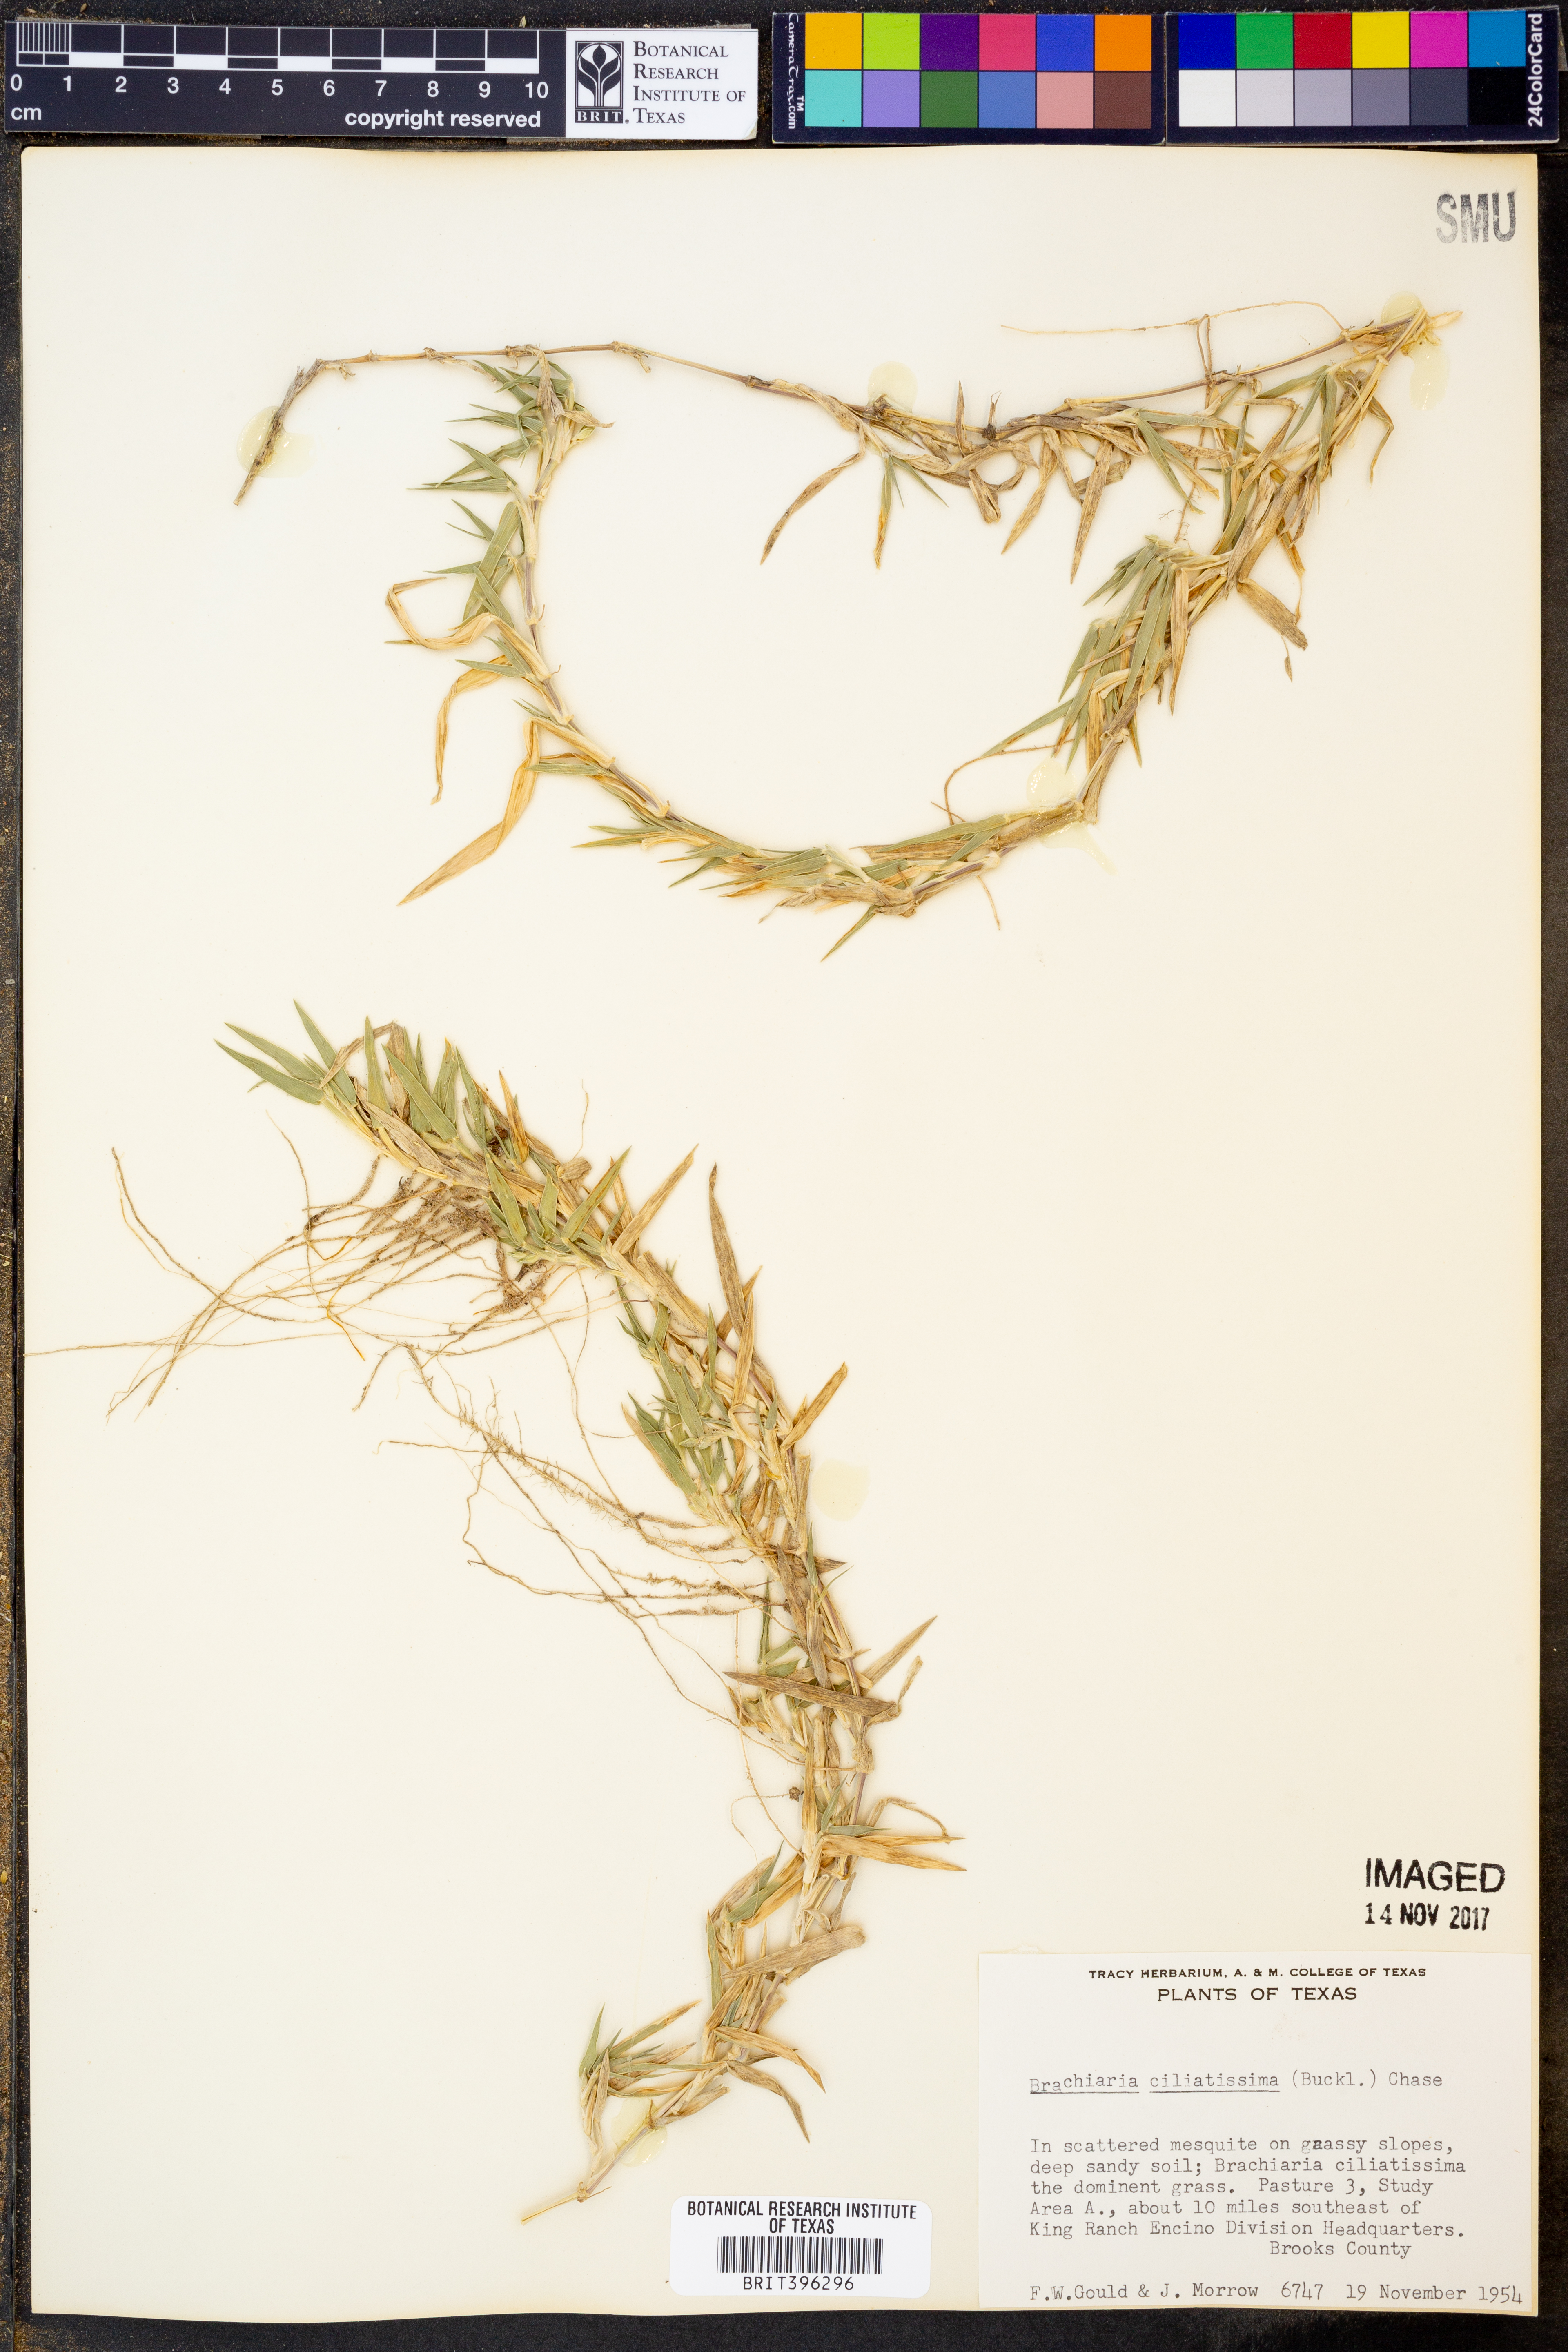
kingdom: Plantae
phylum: Tracheophyta
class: Liliopsida
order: Poales
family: Poaceae
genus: Urochloa
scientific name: Urochloa ciliatissima
